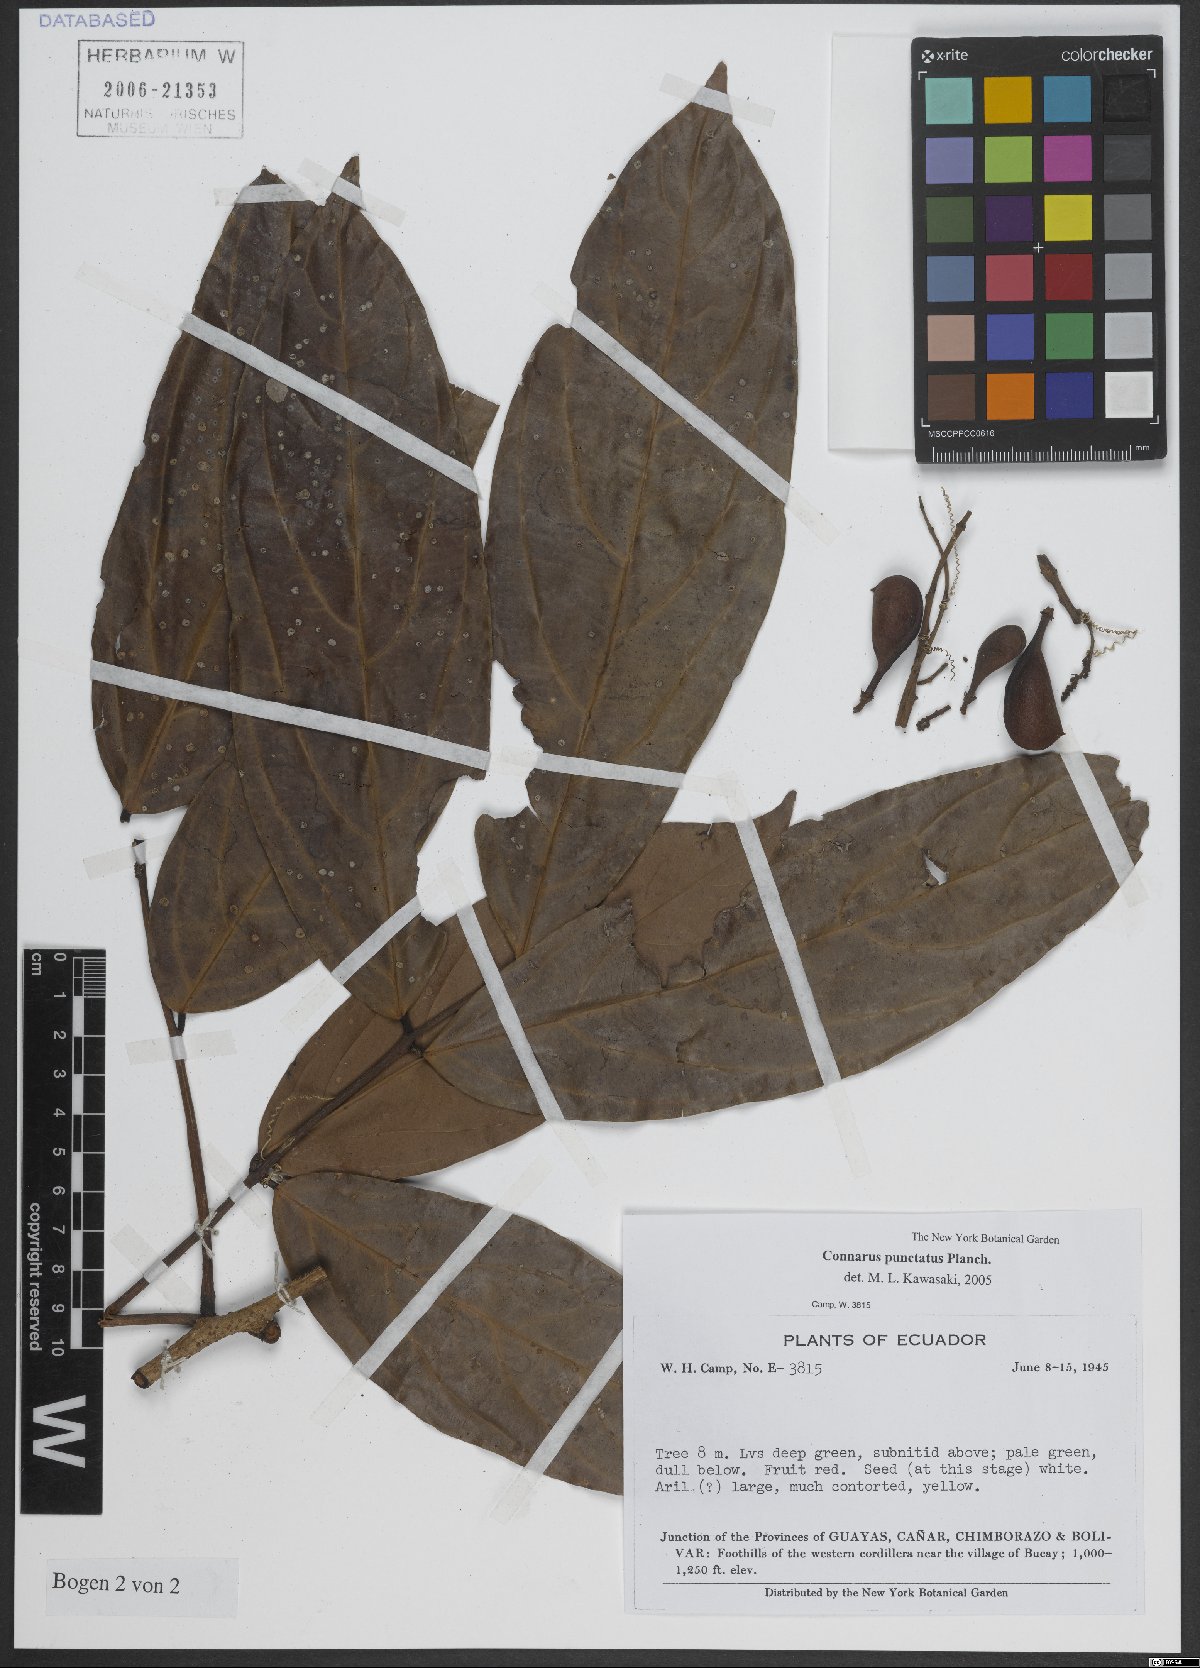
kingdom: Plantae
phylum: Tracheophyta
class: Magnoliopsida
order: Oxalidales
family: Connaraceae
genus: Connarus
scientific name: Connarus punctatus
